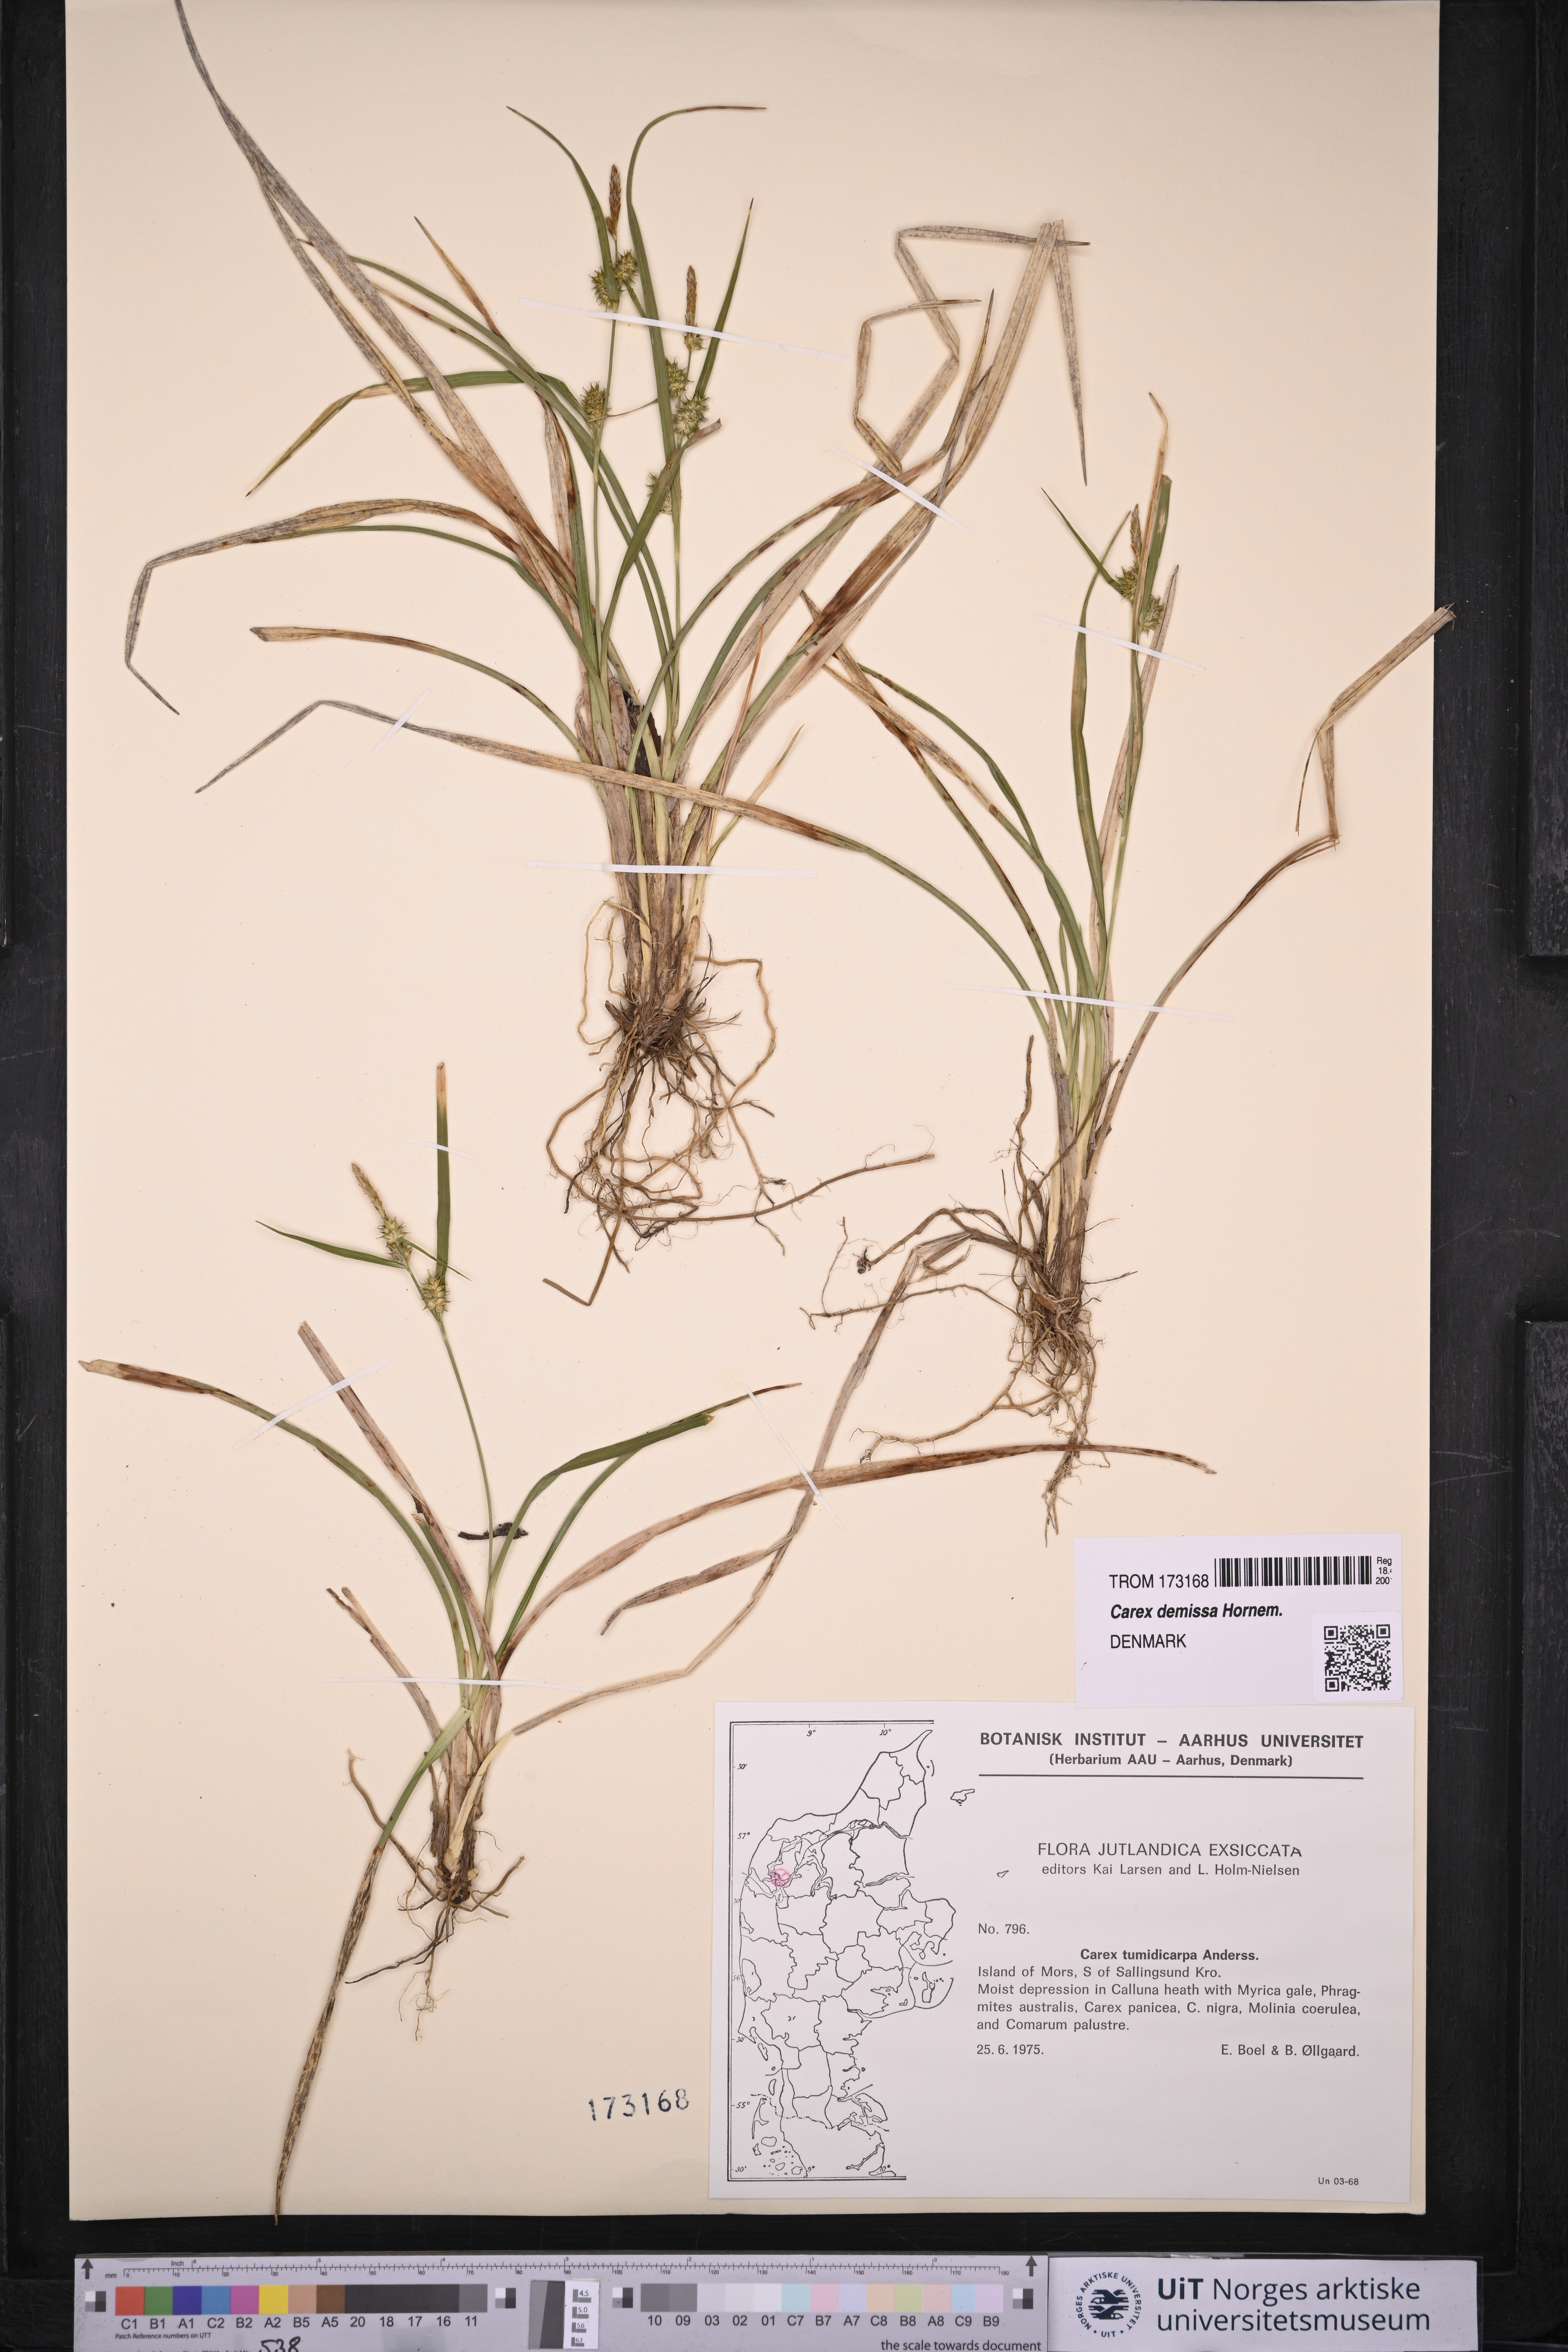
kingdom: Plantae
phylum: Tracheophyta
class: Liliopsida
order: Poales
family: Cyperaceae
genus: Carex
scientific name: Carex demissa
